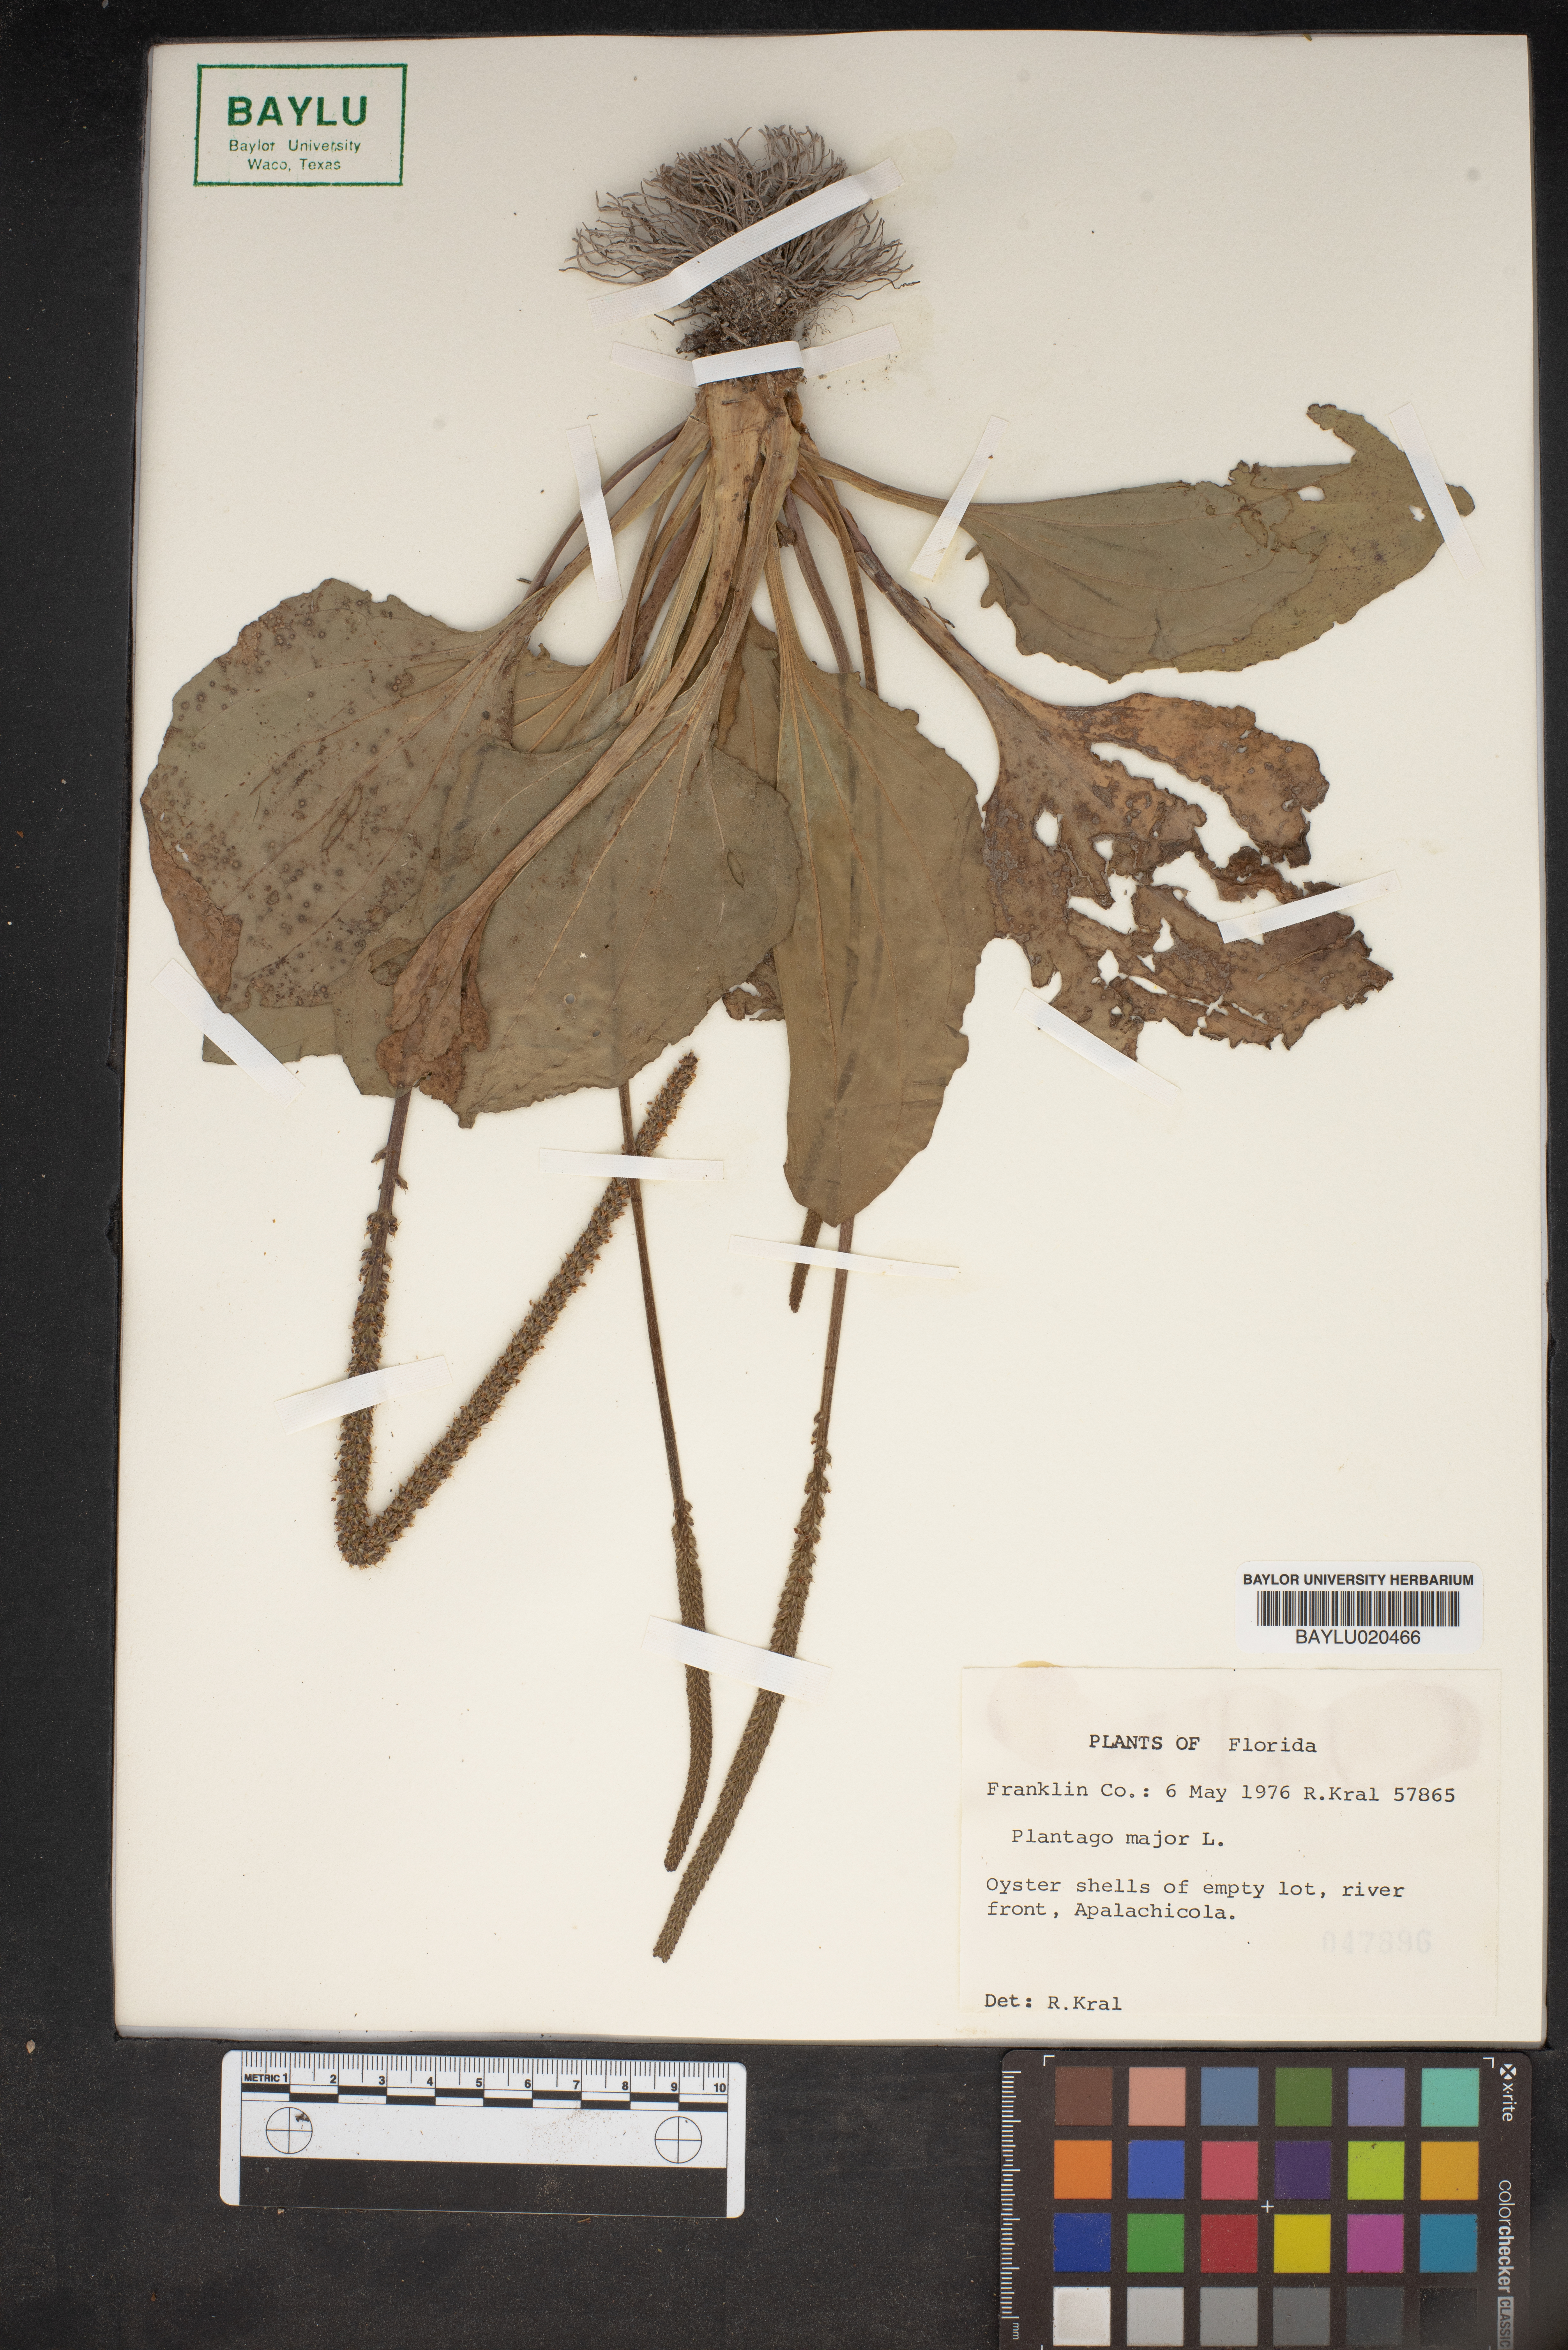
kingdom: Plantae
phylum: Tracheophyta
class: Magnoliopsida
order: Lamiales
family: Plantaginaceae
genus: Plantago
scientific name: Plantago major
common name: Common plantain
